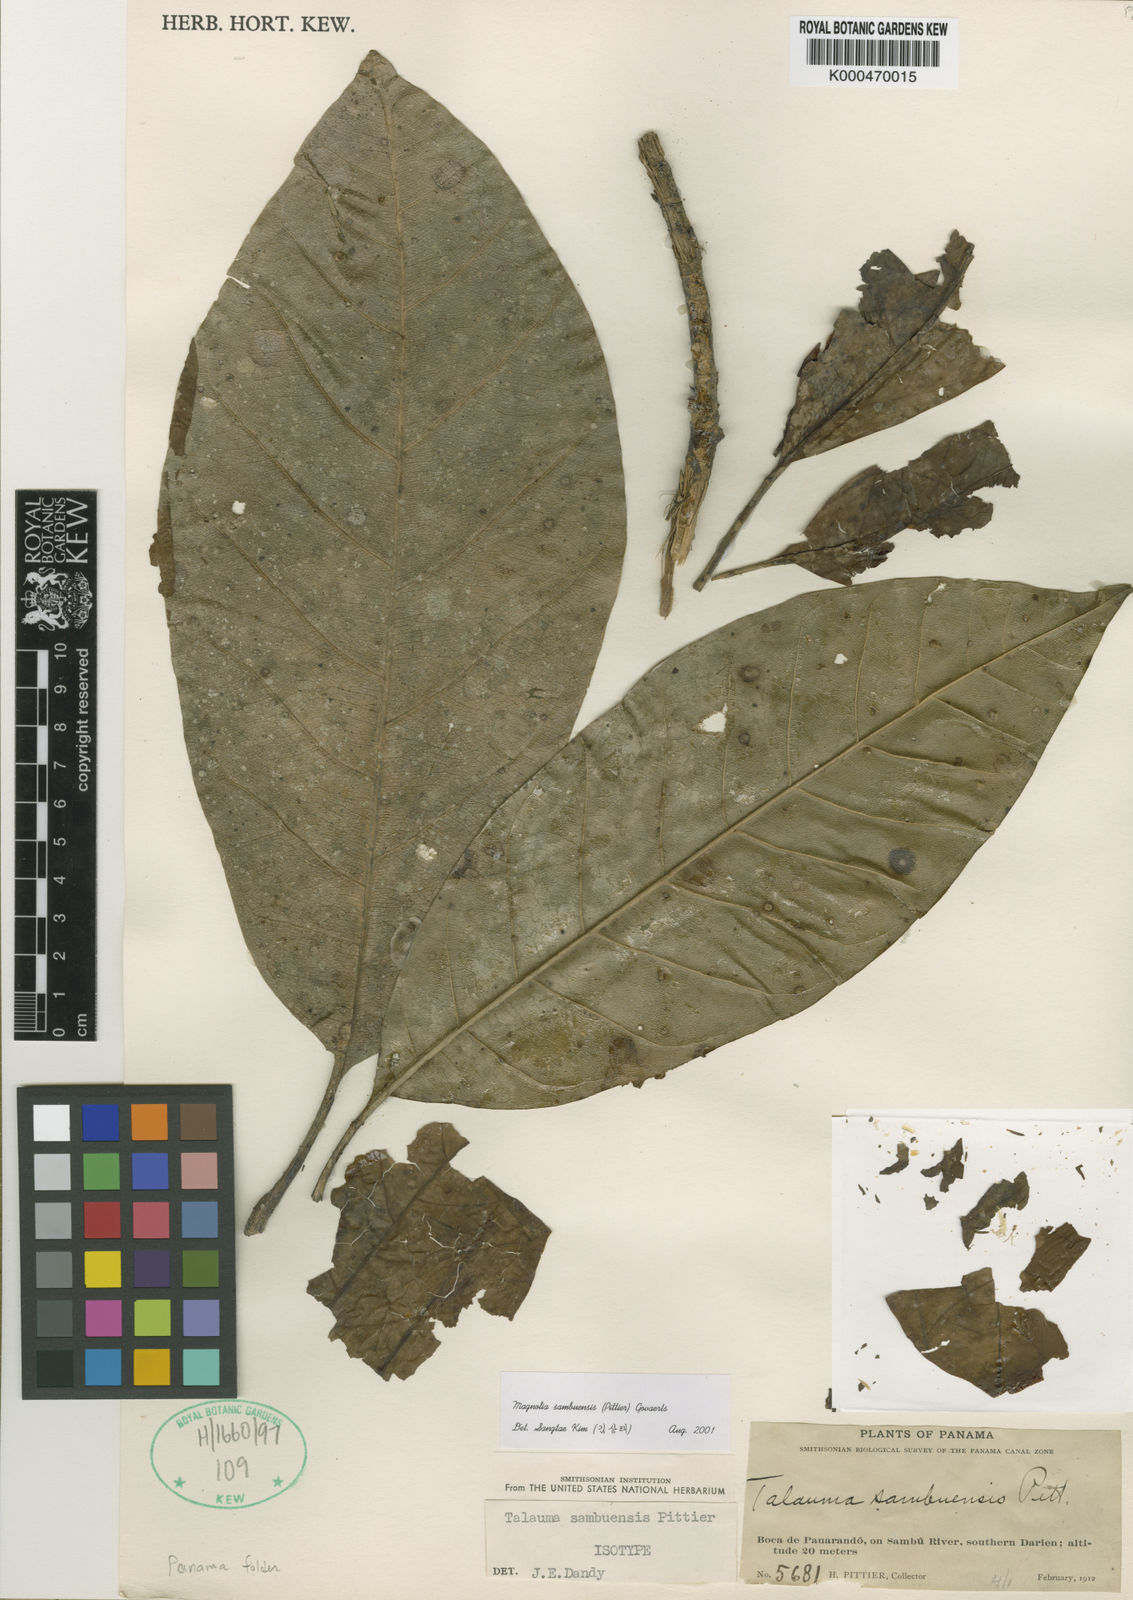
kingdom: Plantae
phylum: Tracheophyta
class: Magnoliopsida
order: Magnoliales
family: Magnoliaceae
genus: Magnolia
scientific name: Magnolia sambuensis
